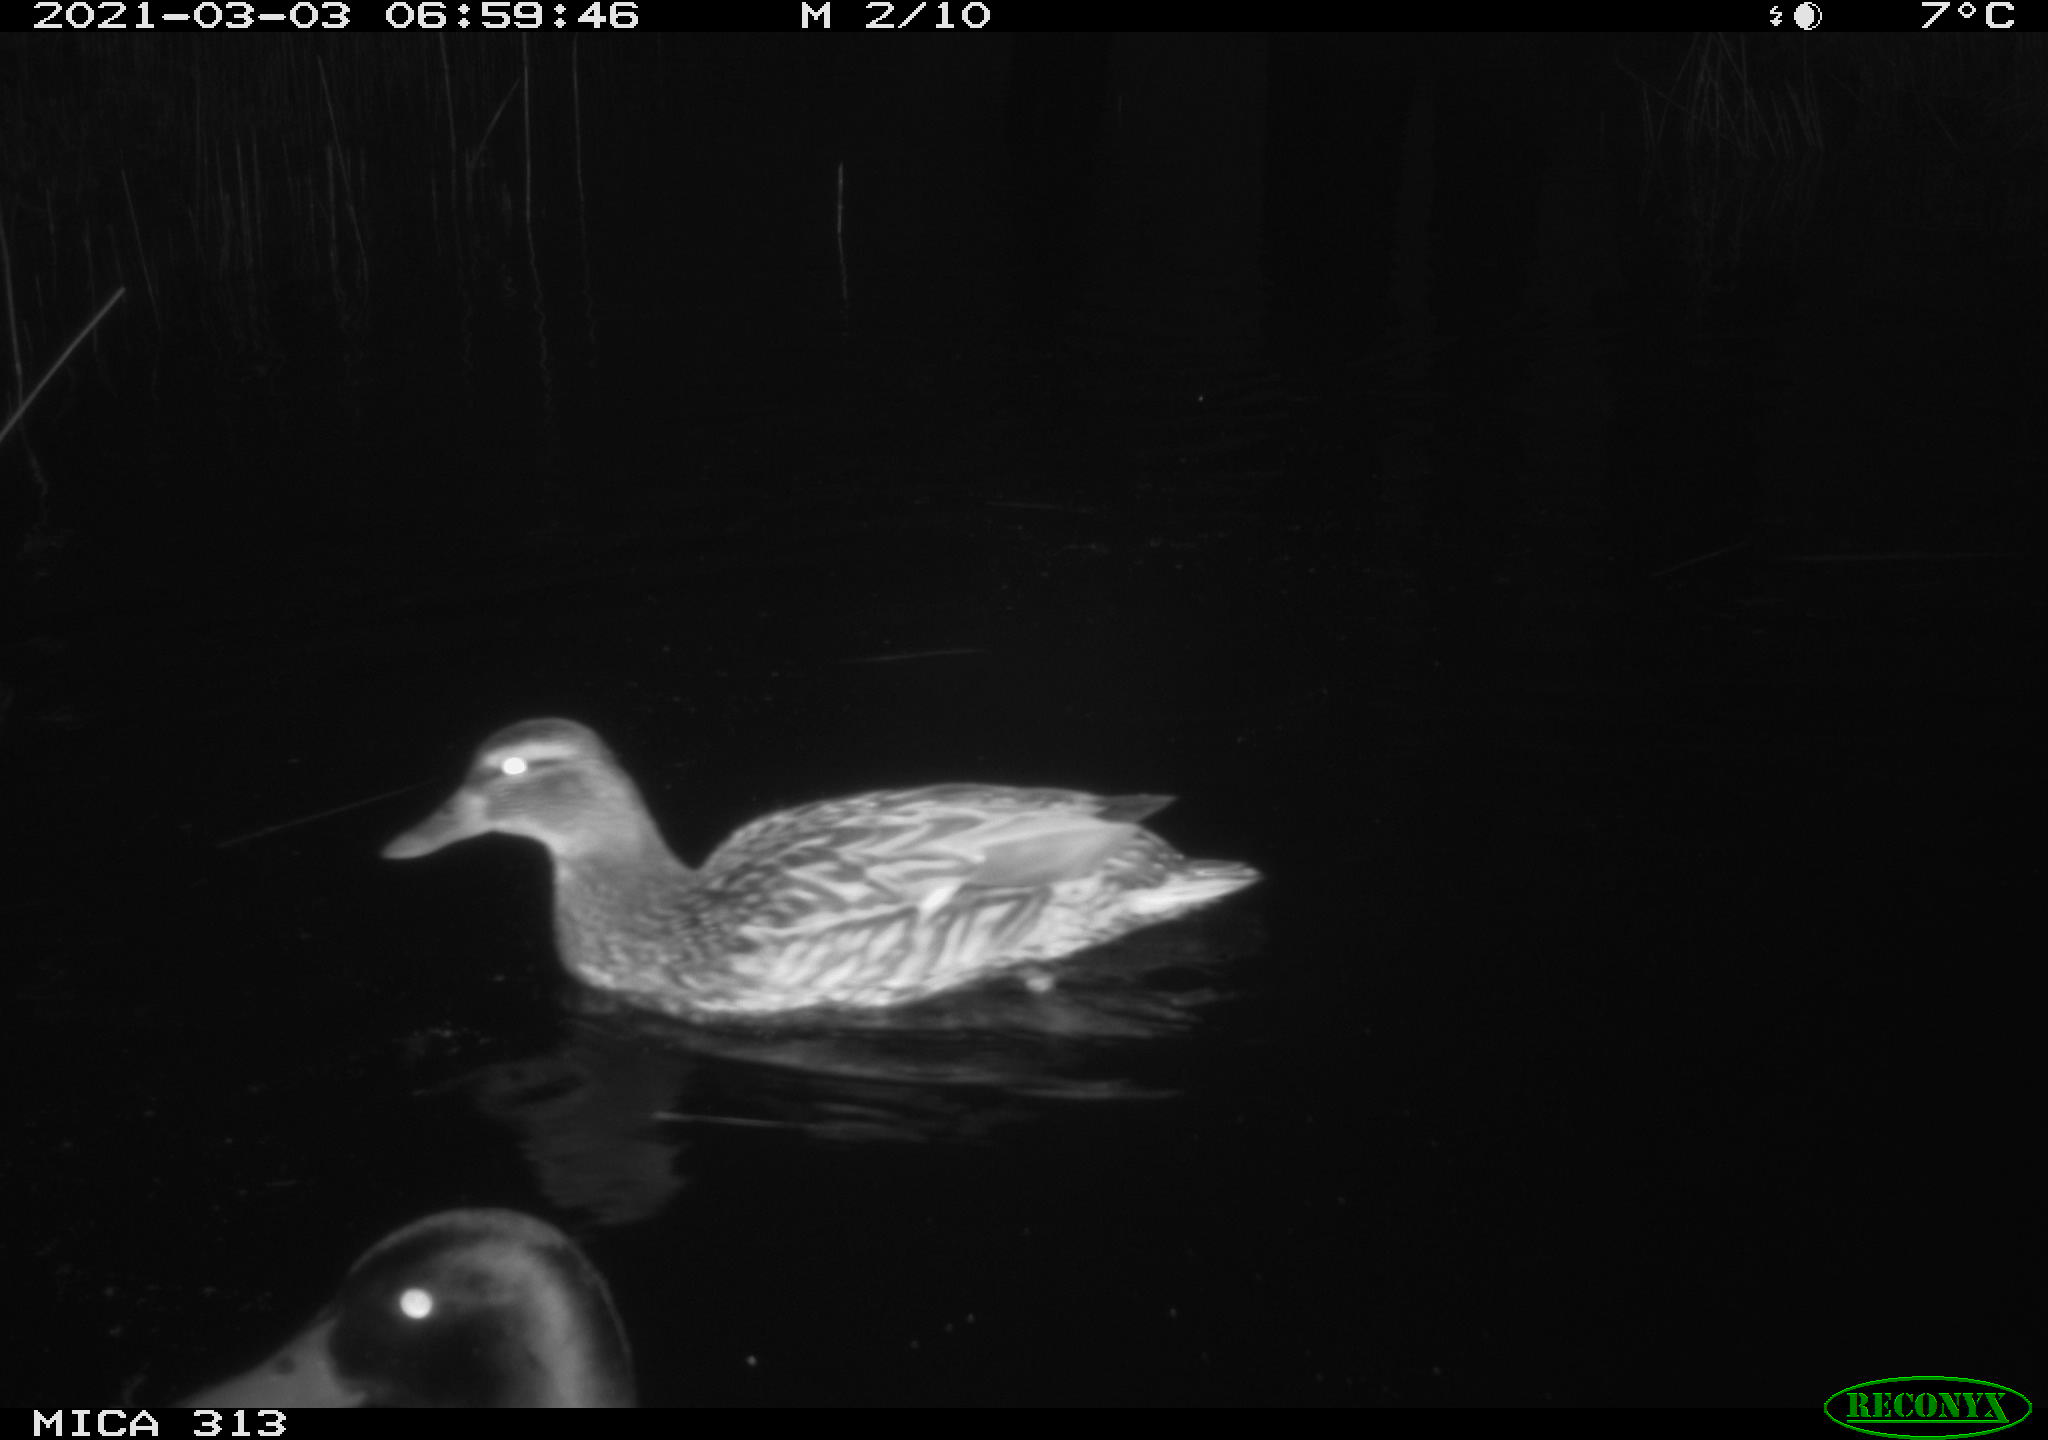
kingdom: Animalia
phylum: Chordata
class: Aves
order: Anseriformes
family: Anatidae
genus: Anas
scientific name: Anas
